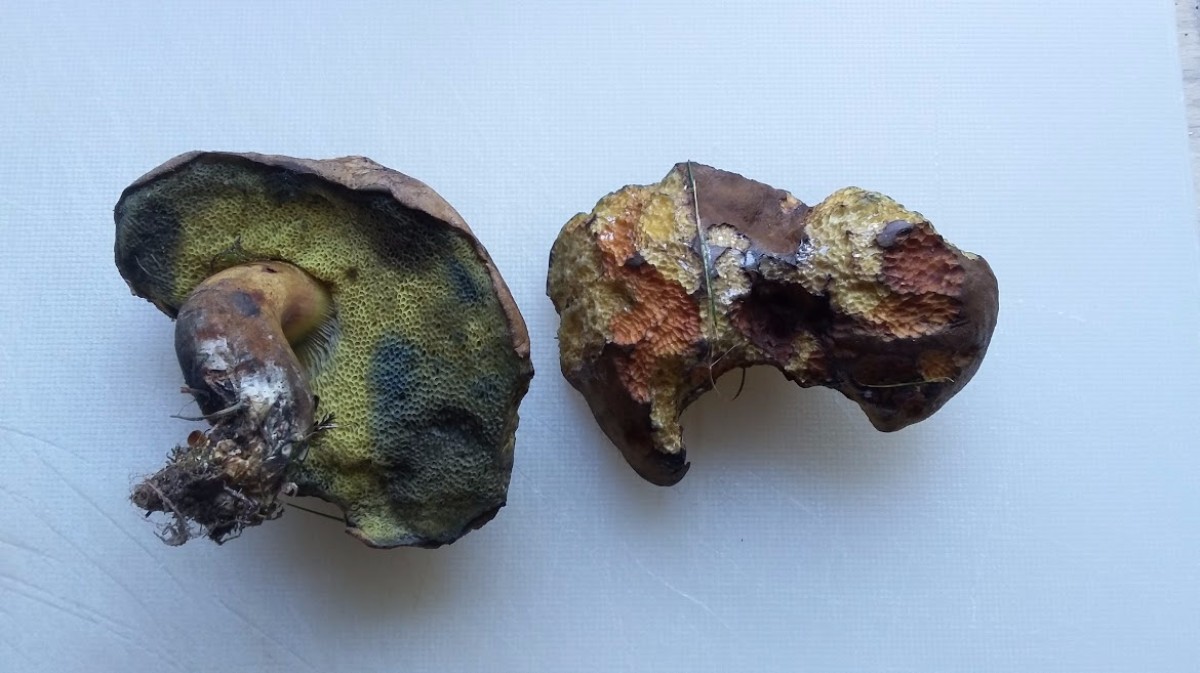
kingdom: Fungi
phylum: Basidiomycota
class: Agaricomycetes
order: Boletales
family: Boletaceae
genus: Cyanoboletus
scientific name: Cyanoboletus pulverulentus
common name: sortblånende rørhat
